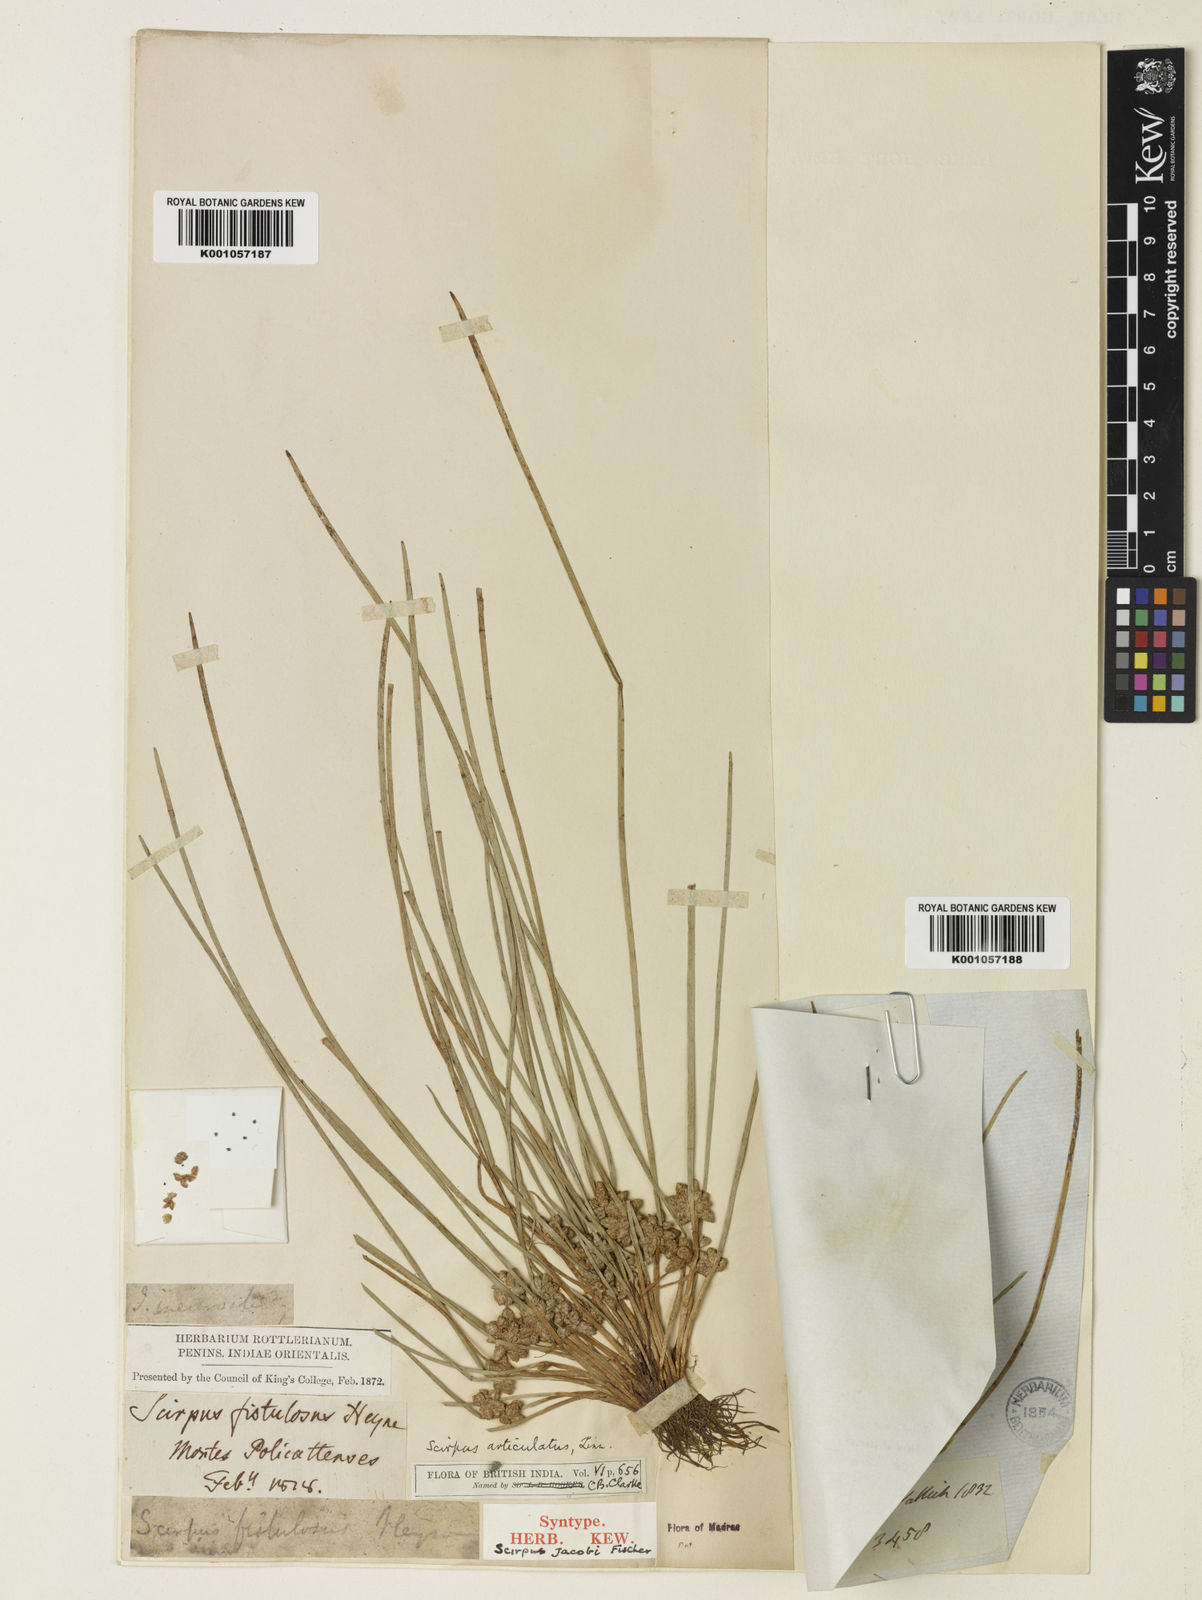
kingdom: Plantae
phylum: Tracheophyta
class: Liliopsida
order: Poales
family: Cyperaceae
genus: Schoenoplectiella
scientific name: Schoenoplectiella senegalensis
